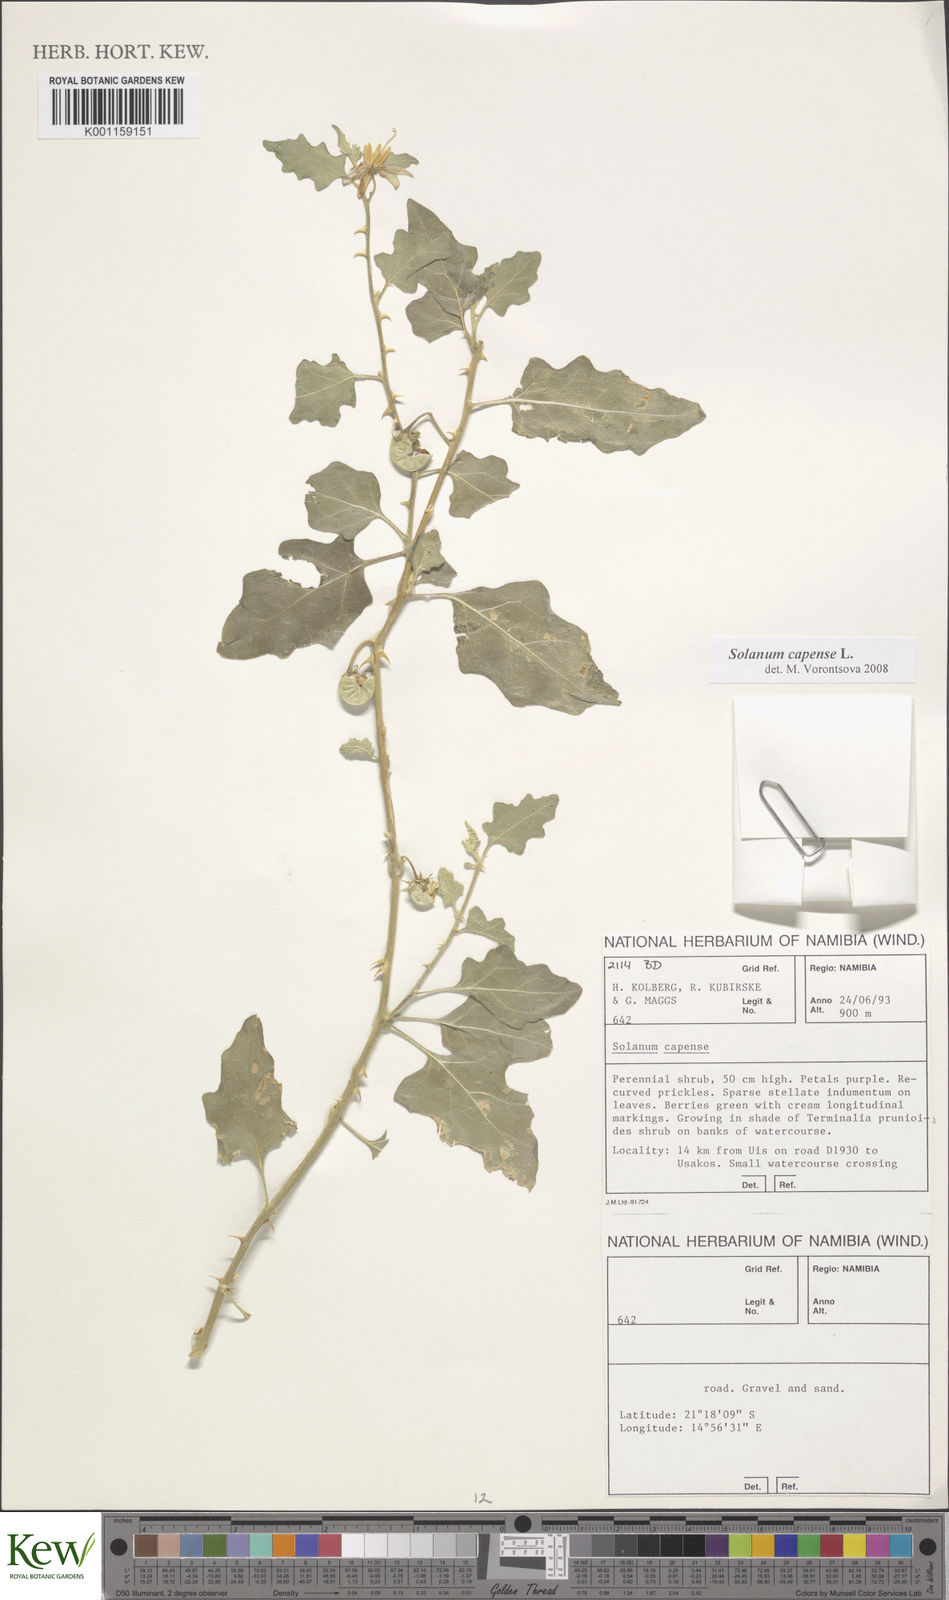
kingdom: Plantae
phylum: Tracheophyta
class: Magnoliopsida
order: Solanales
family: Solanaceae
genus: Solanum
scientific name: Solanum capense
